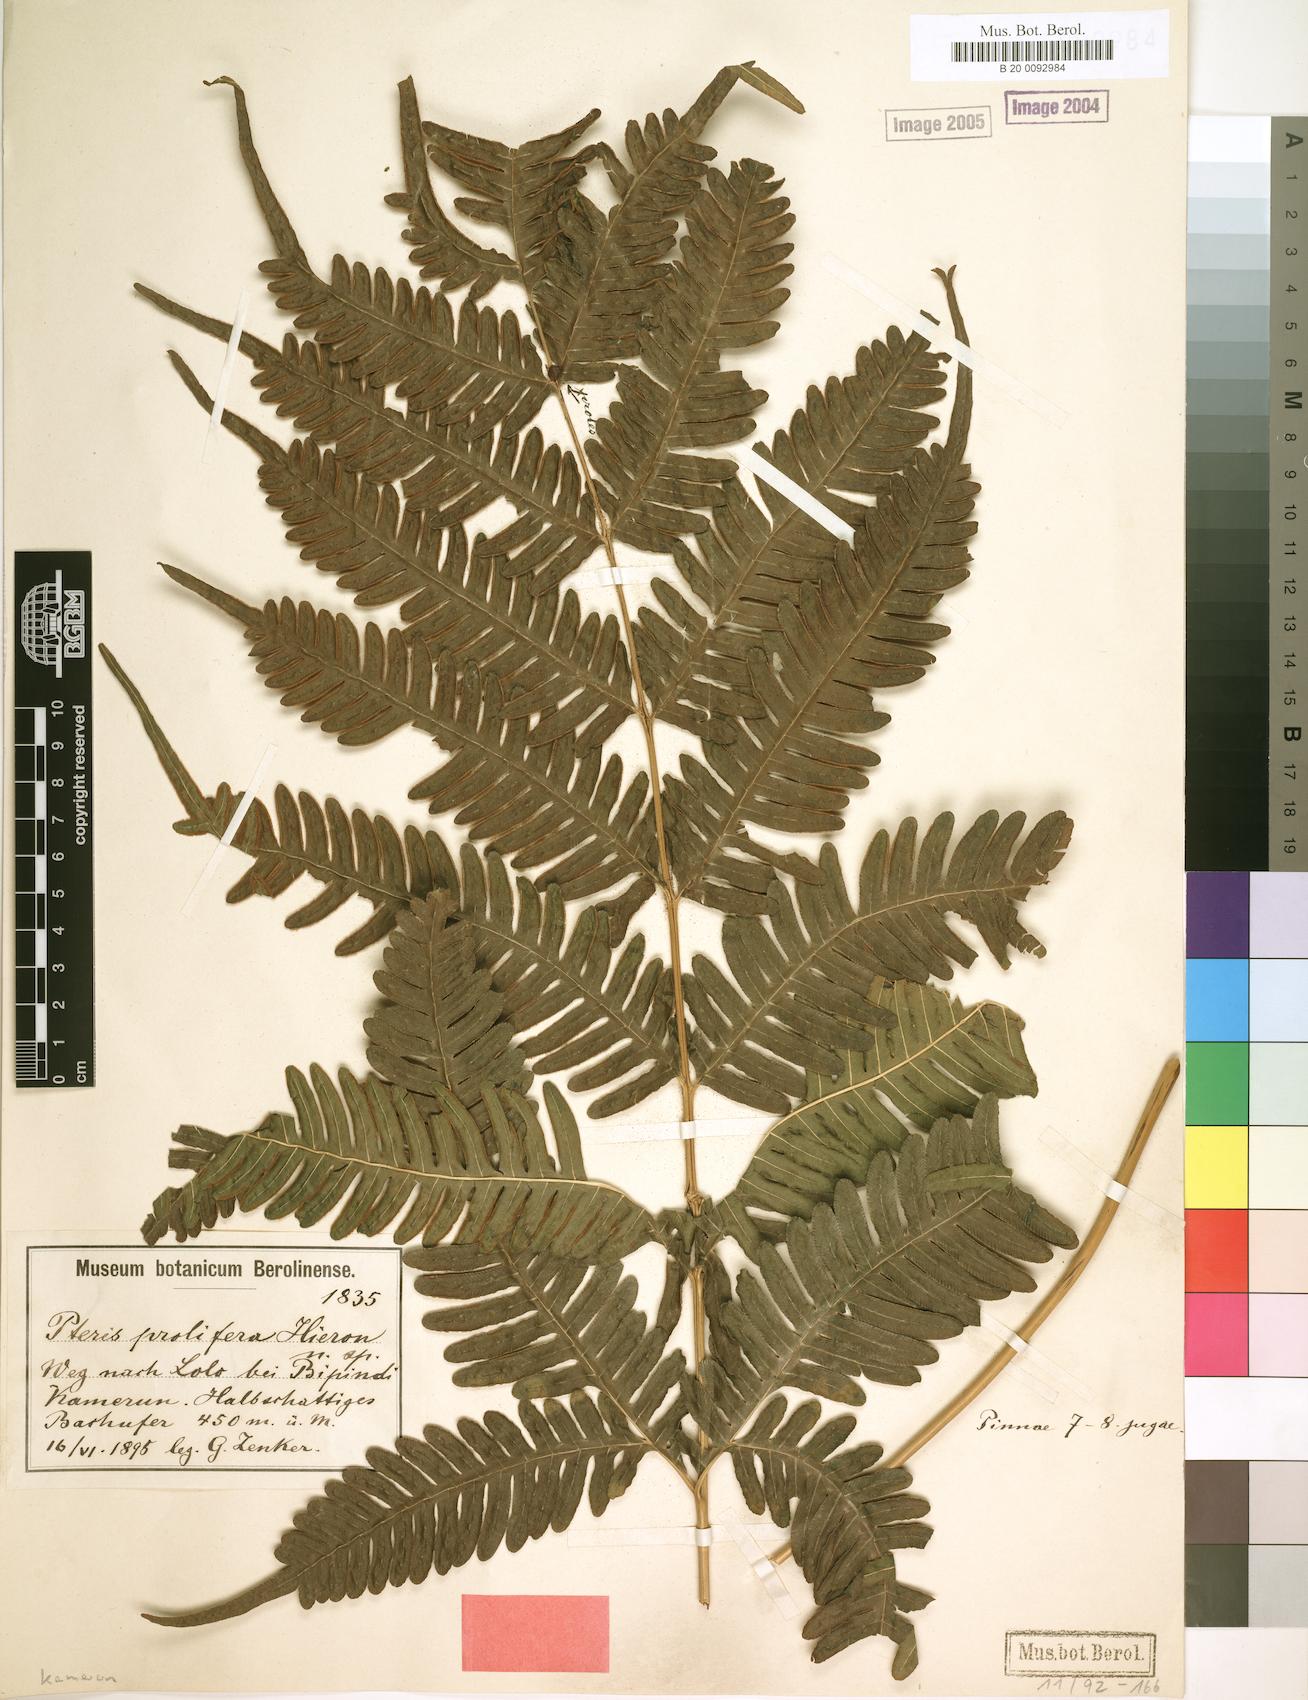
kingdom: Plantae
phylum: Tracheophyta
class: Polypodiopsida
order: Polypodiales
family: Pteridaceae
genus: Pteris
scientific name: Pteris preussii
